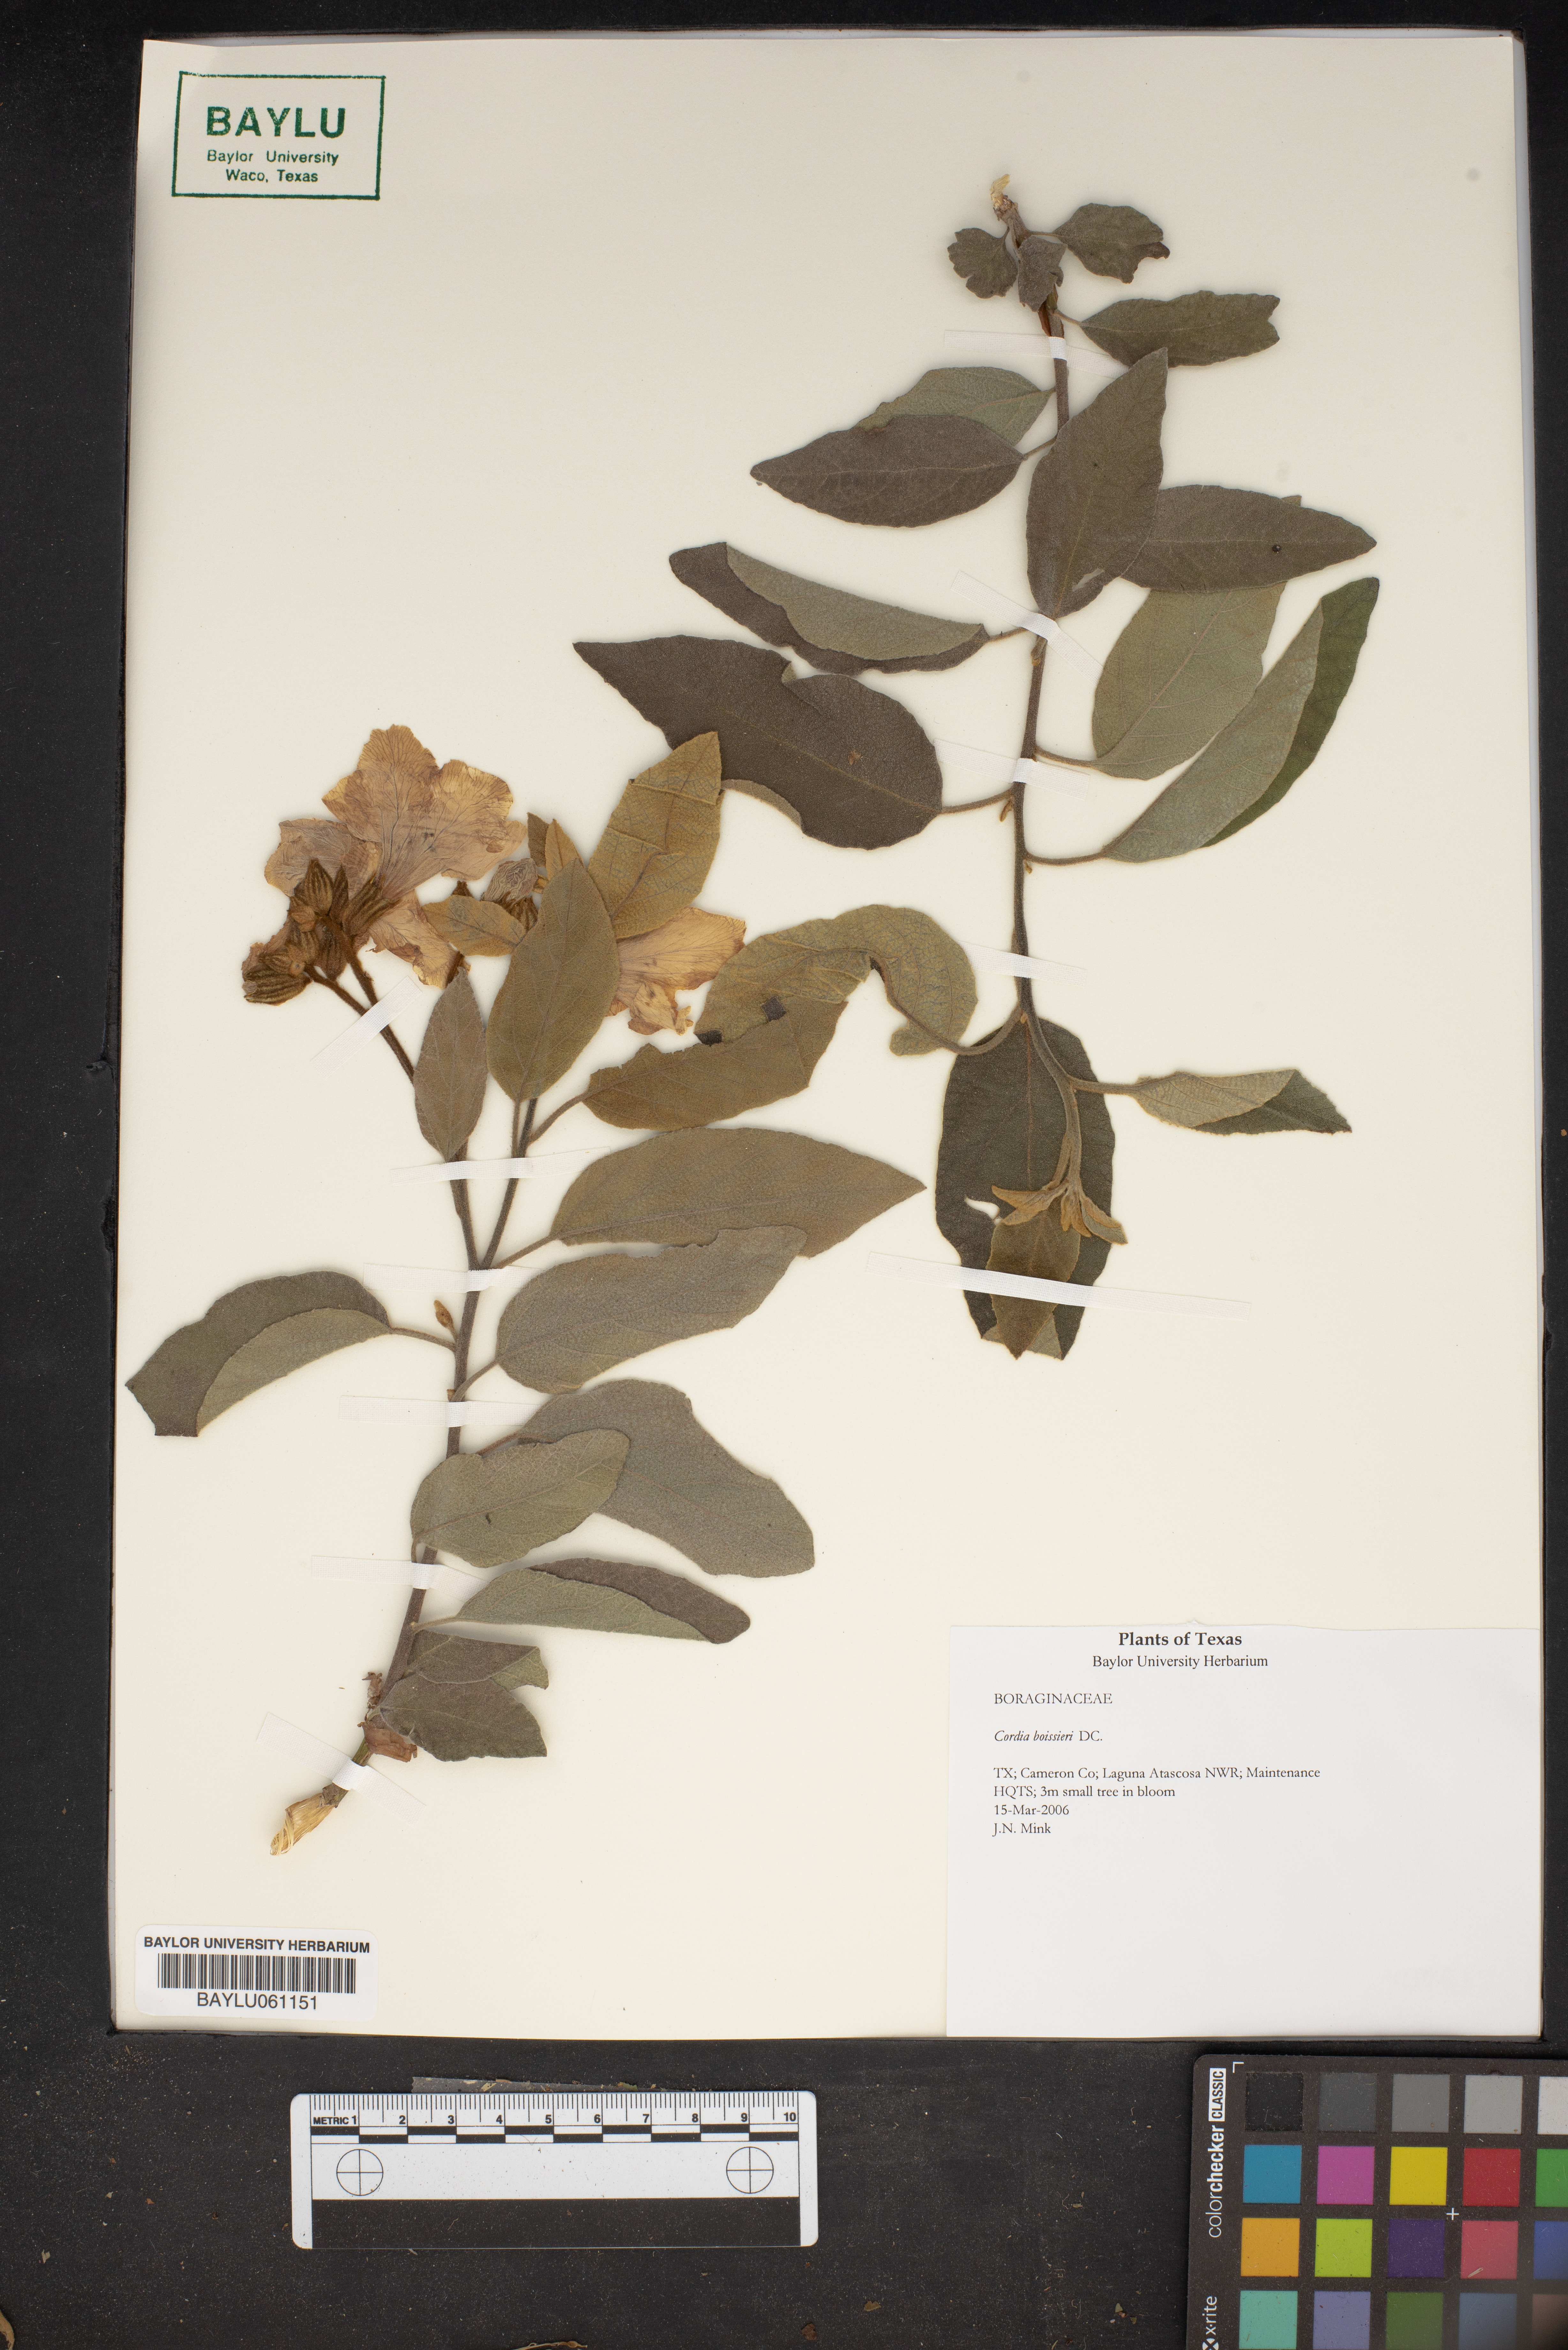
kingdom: Plantae
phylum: Tracheophyta
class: Magnoliopsida
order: Boraginales
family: Cordiaceae
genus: Cordia
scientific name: Cordia boissieri
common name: Mexican-olive
